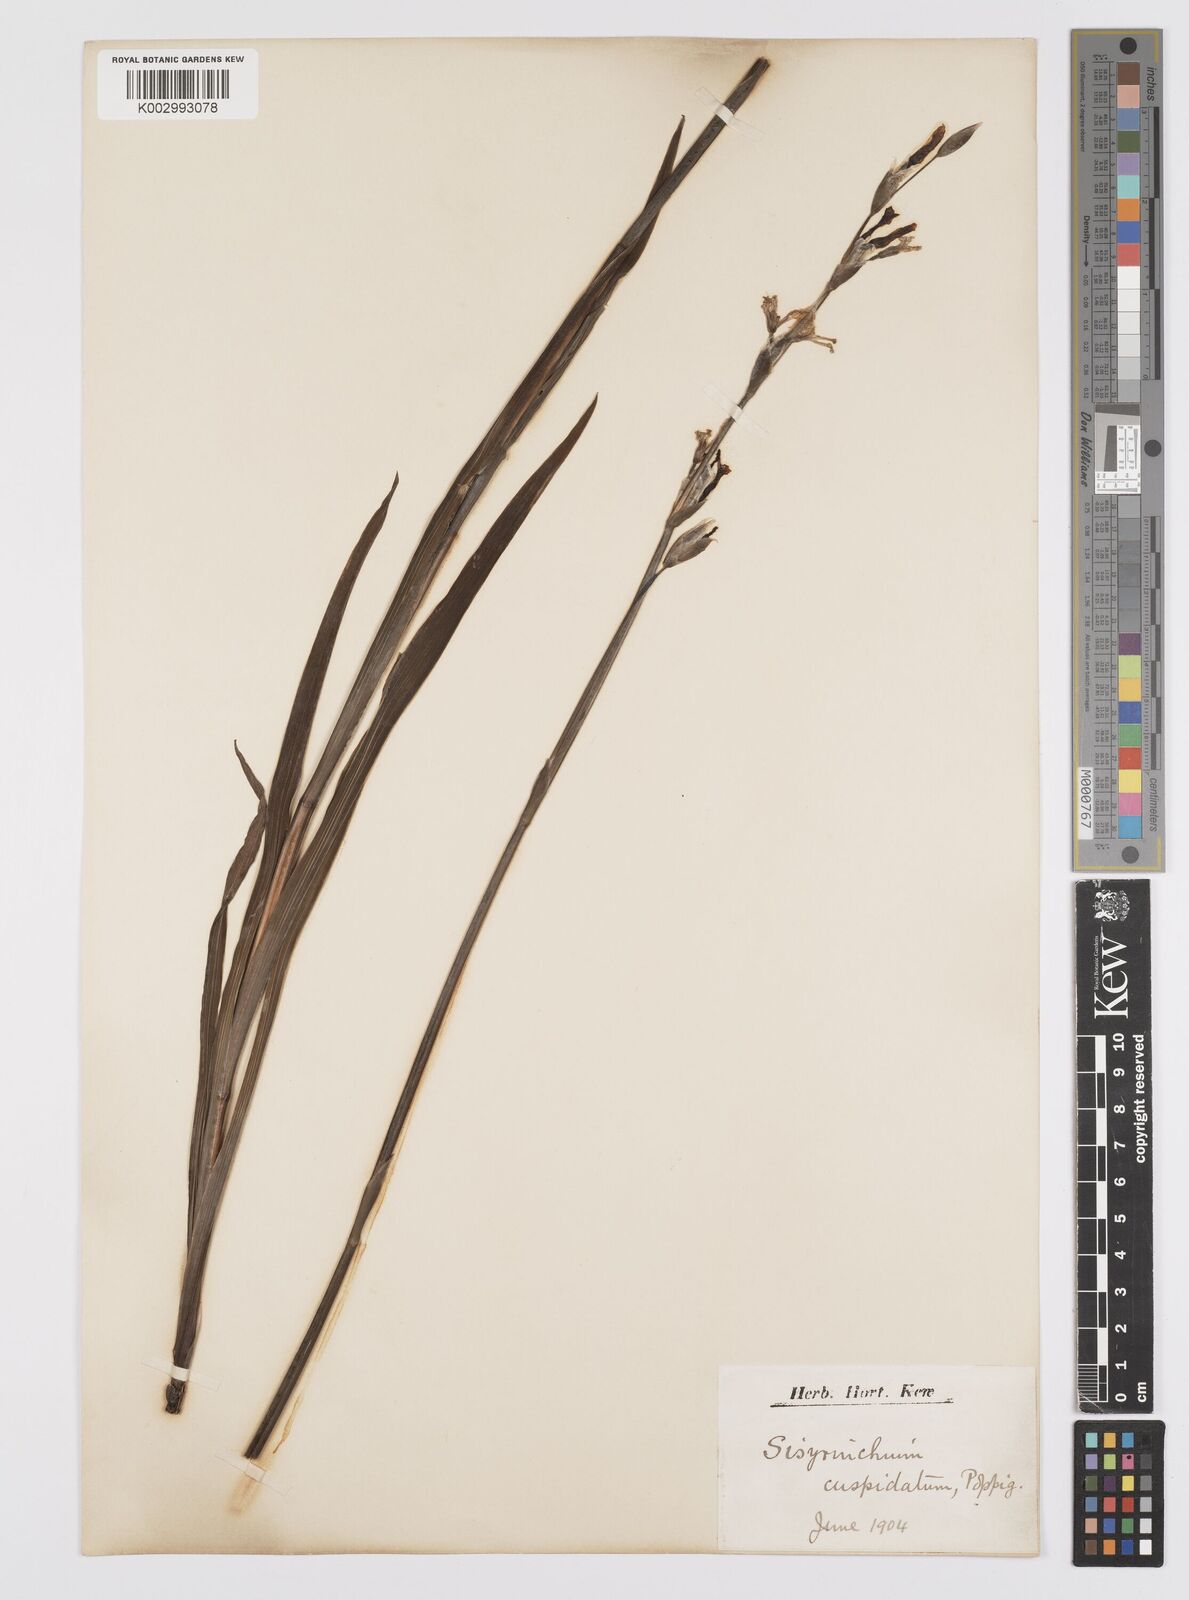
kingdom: Plantae
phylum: Tracheophyta
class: Liliopsida
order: Asparagales
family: Iridaceae
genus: Sisyrinchium
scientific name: Sisyrinchium cuspidatum
